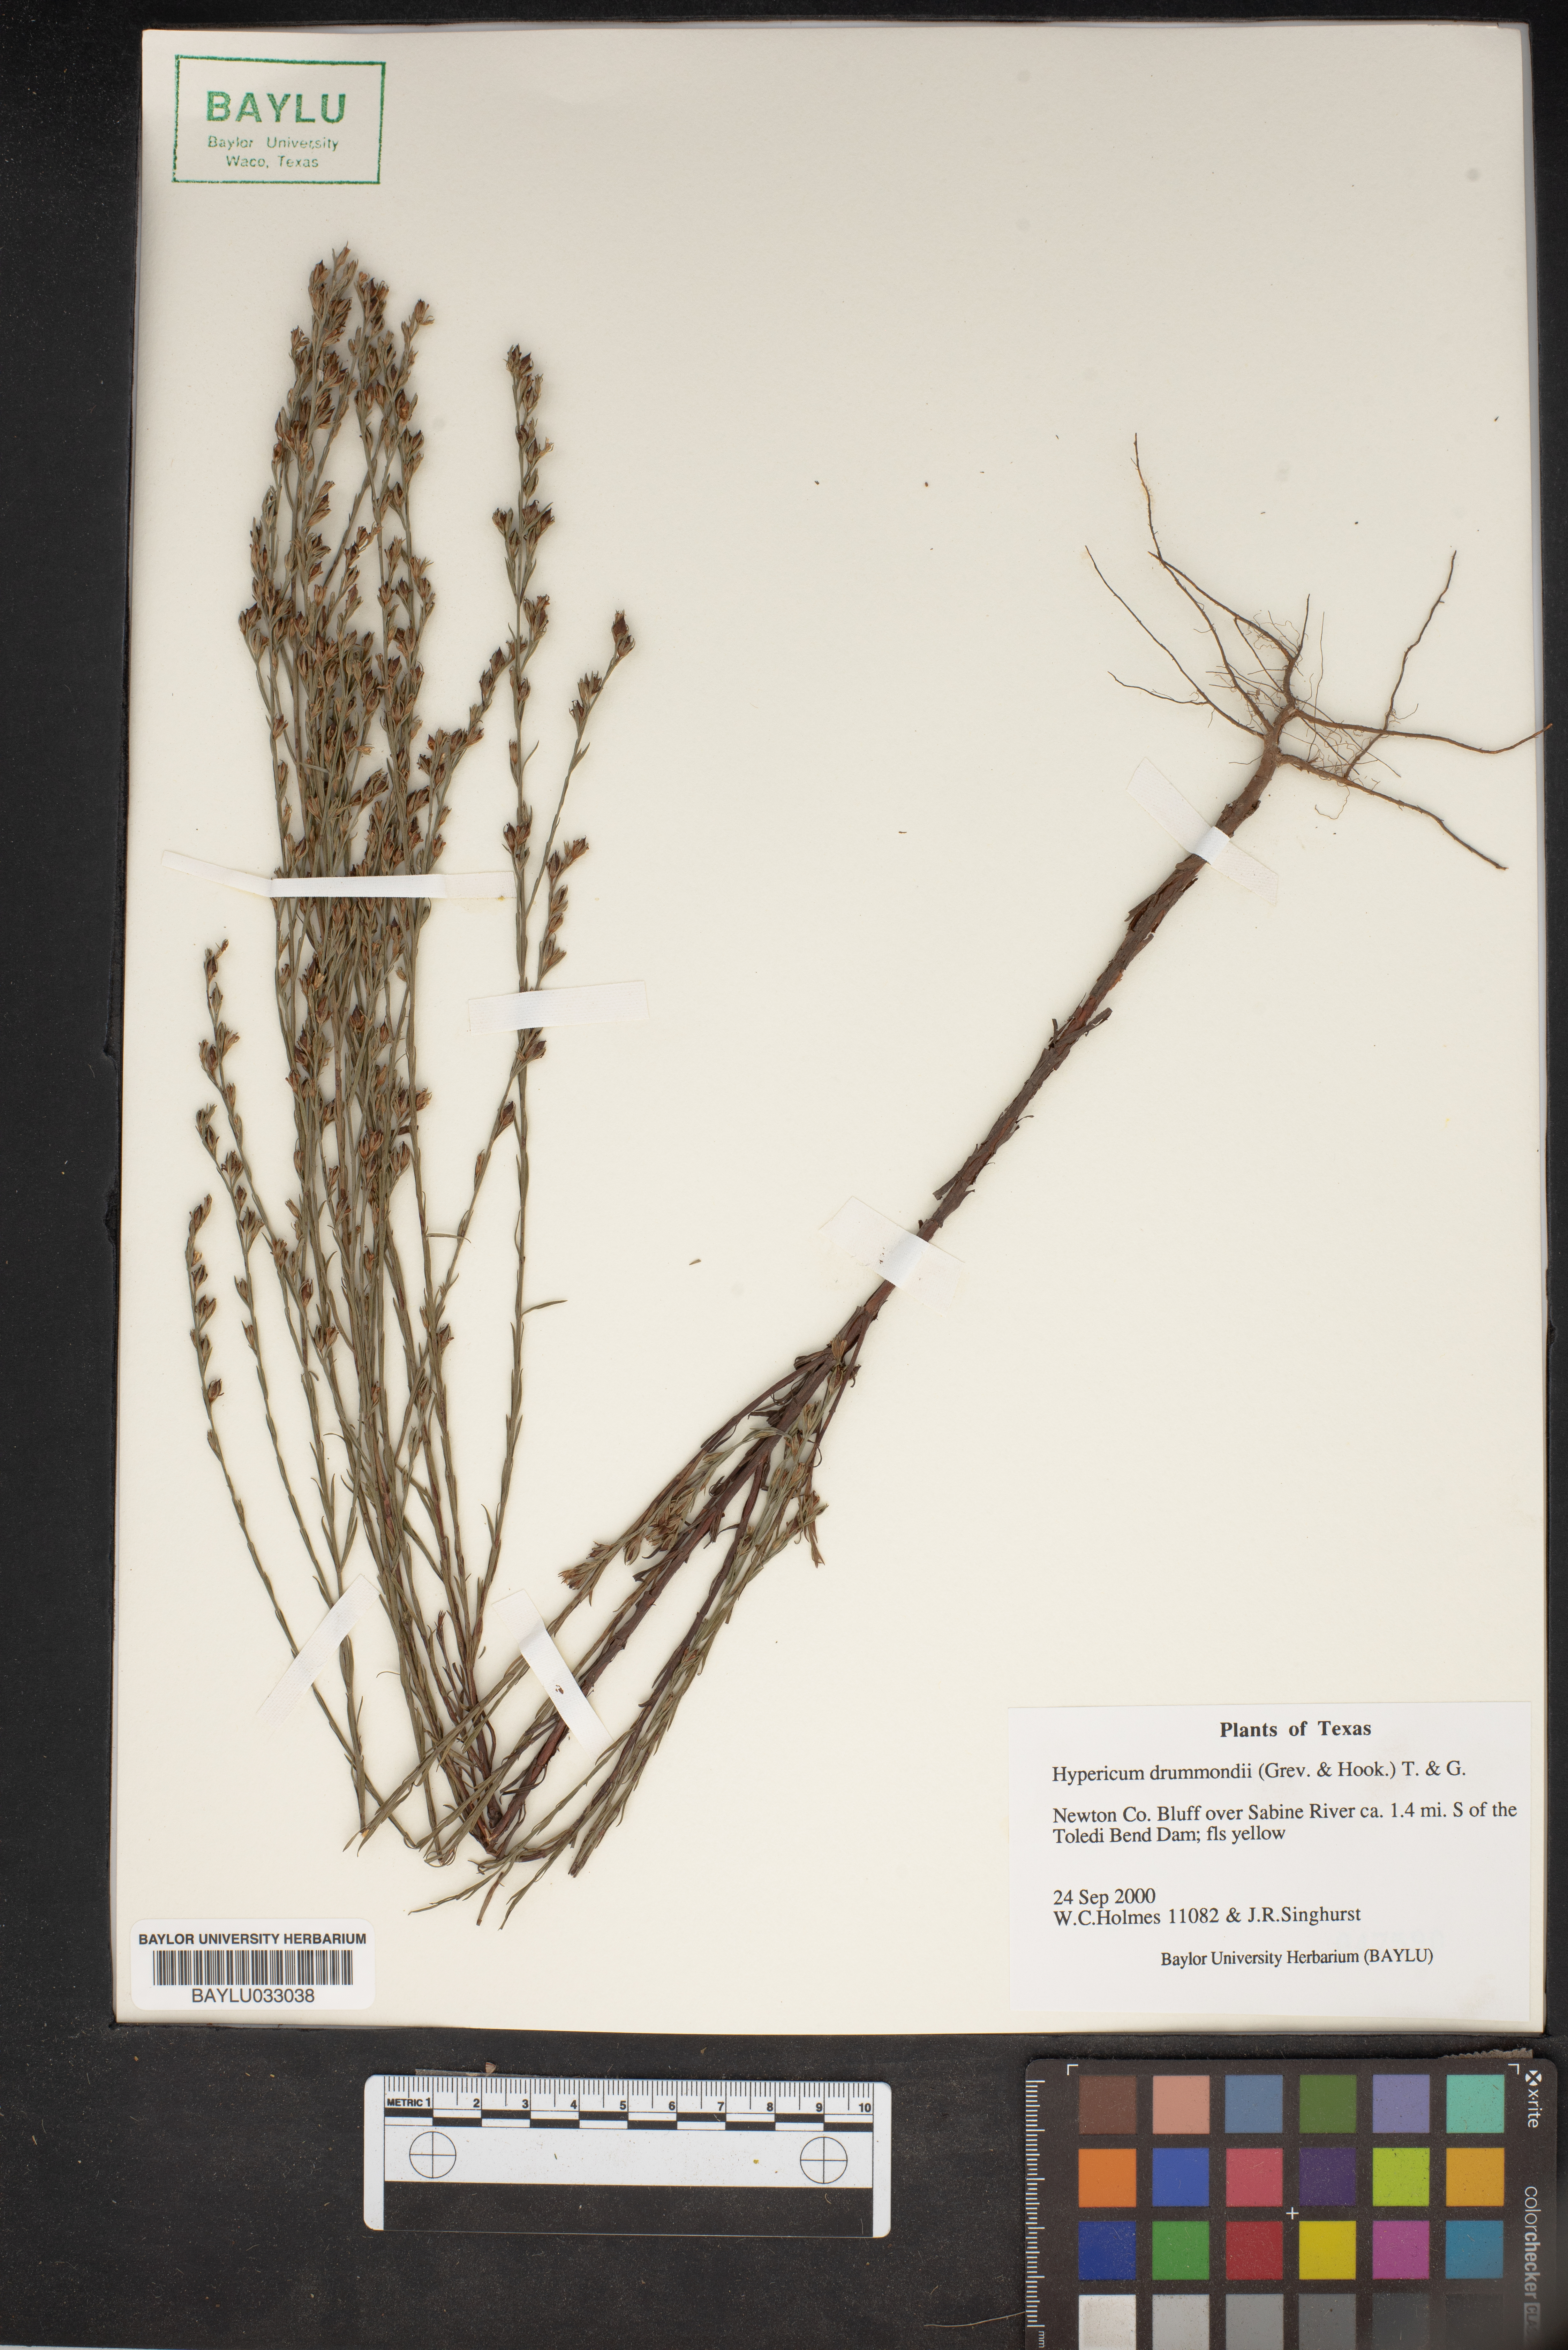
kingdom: Plantae
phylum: Tracheophyta
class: Magnoliopsida
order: Malpighiales
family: Hypericaceae
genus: Hypericum
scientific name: Hypericum drummondii
